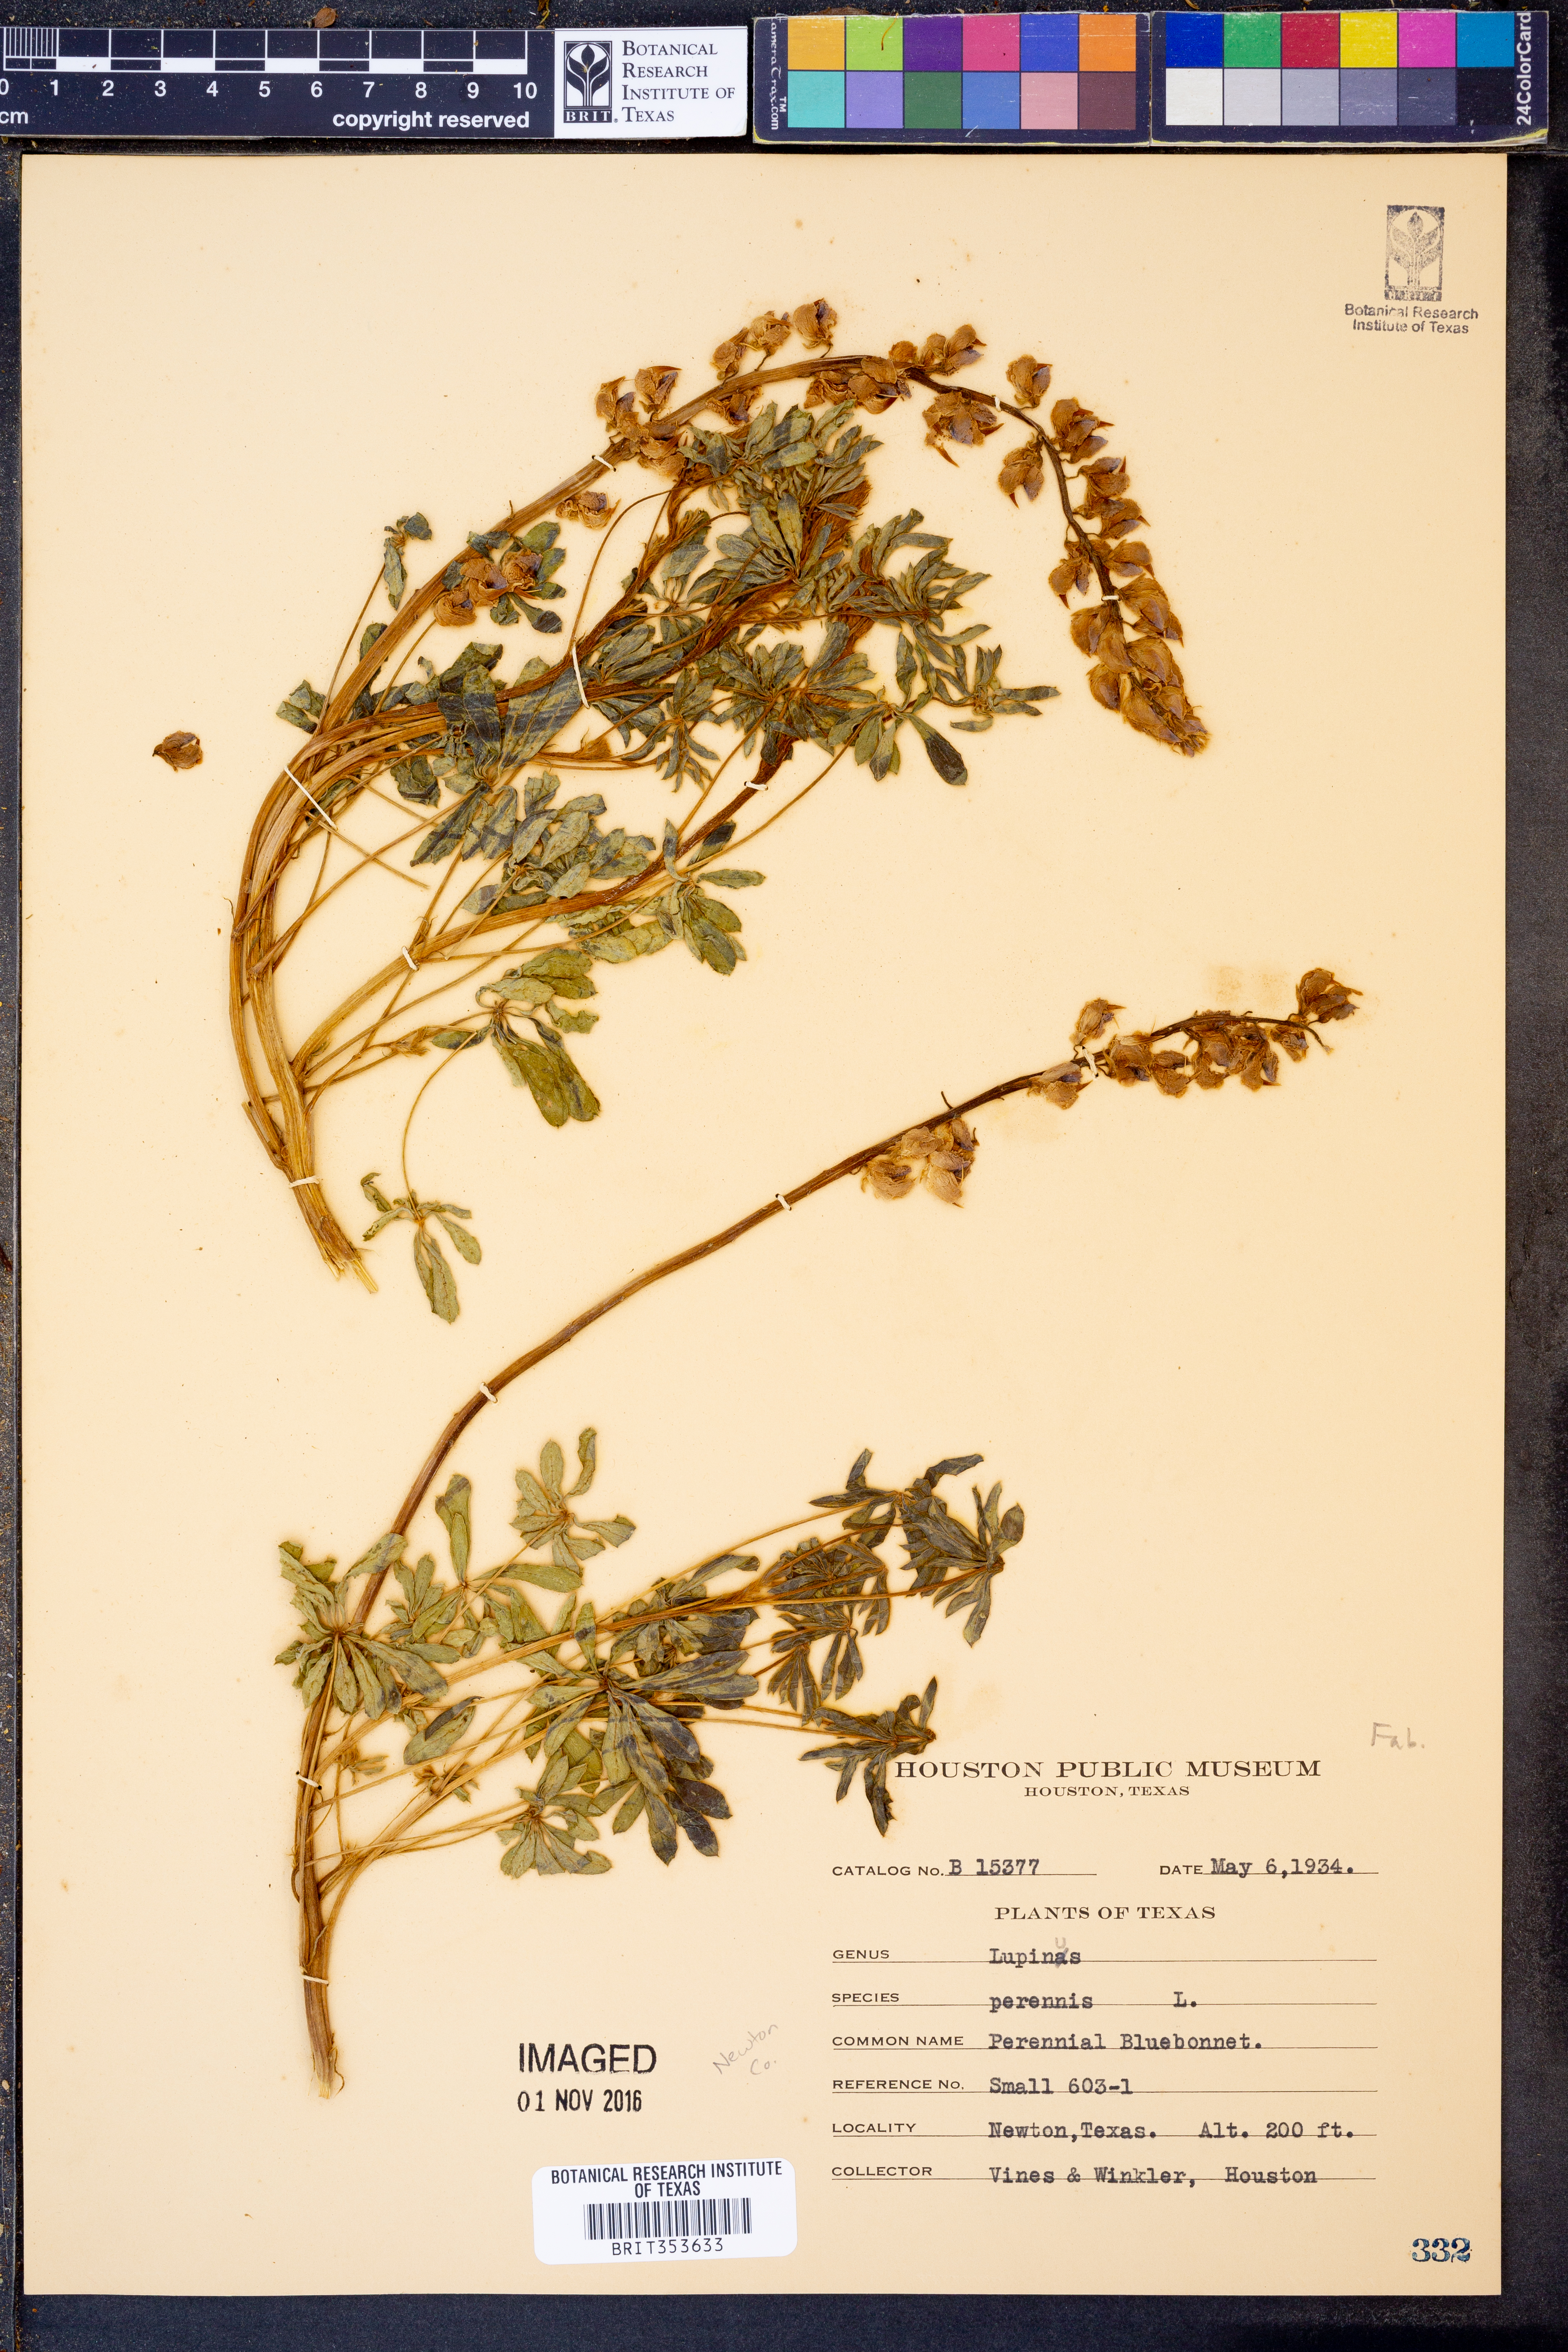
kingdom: Plantae
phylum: Tracheophyta
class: Magnoliopsida
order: Fabales
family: Fabaceae
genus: Lupinus
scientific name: Lupinus perennis
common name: Sundial lupine
